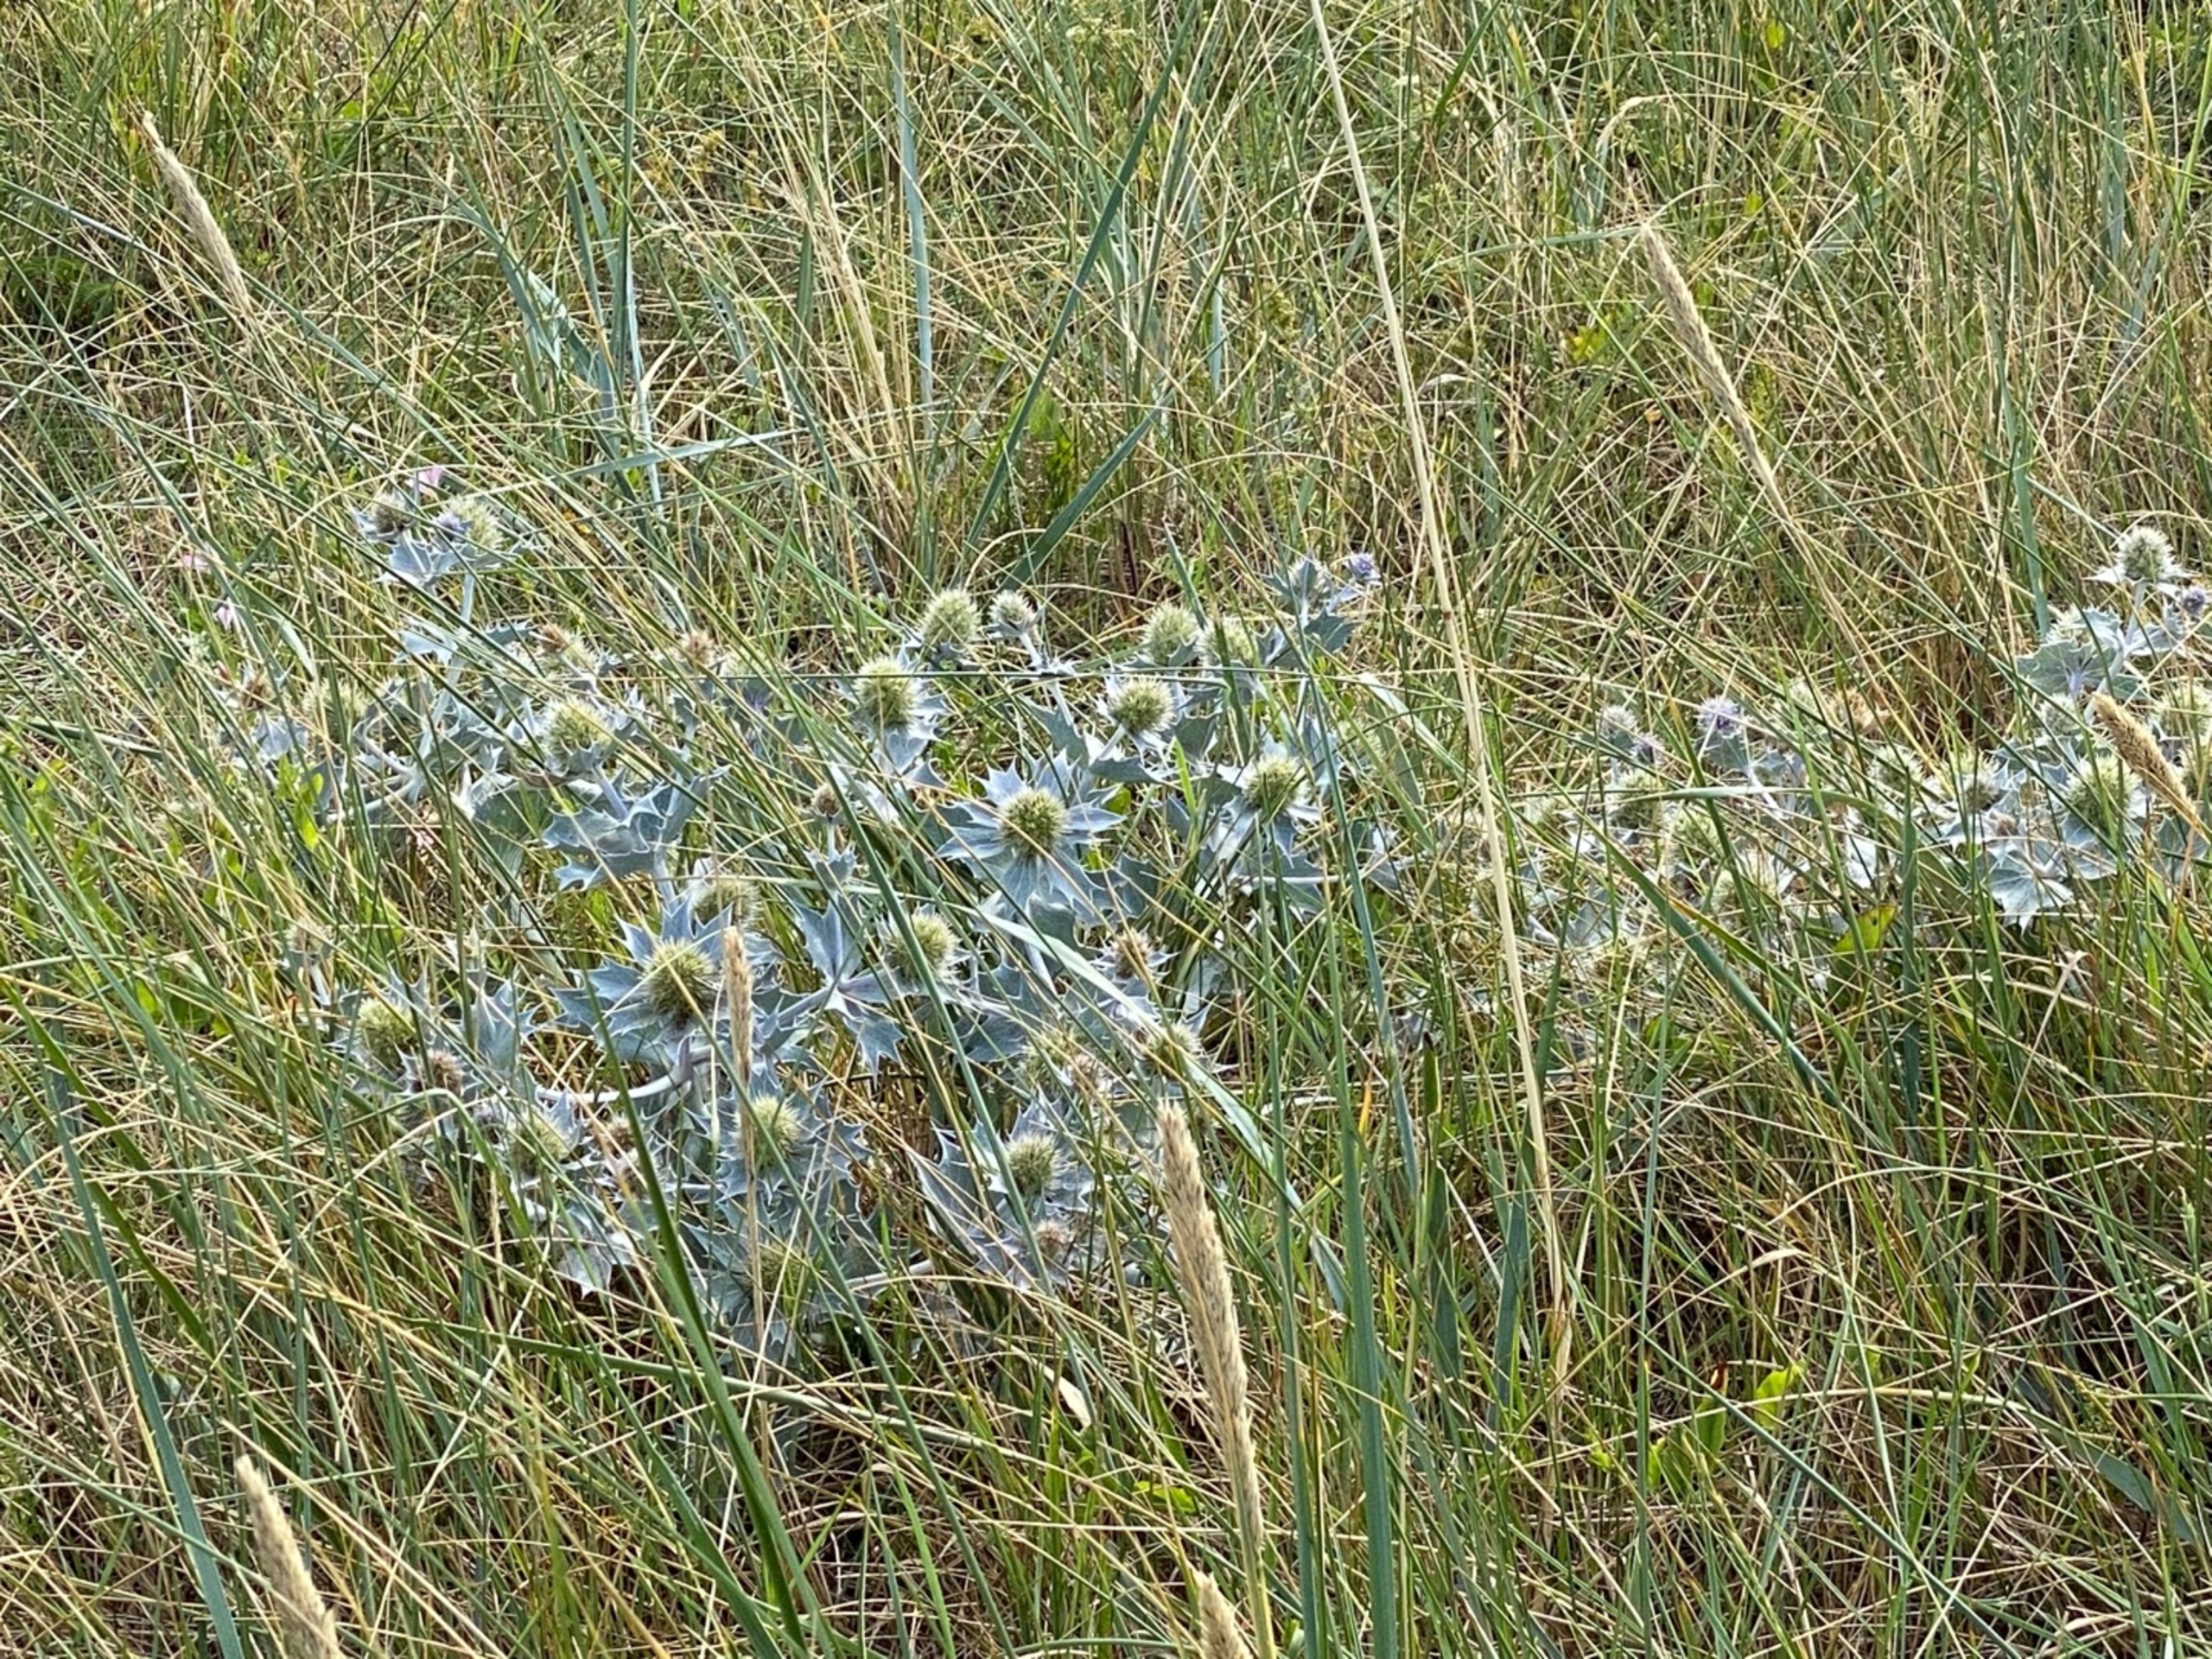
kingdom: Plantae
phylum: Tracheophyta
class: Magnoliopsida
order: Apiales
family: Apiaceae
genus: Eryngium
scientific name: Eryngium maritimum
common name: Strand-mandstro
